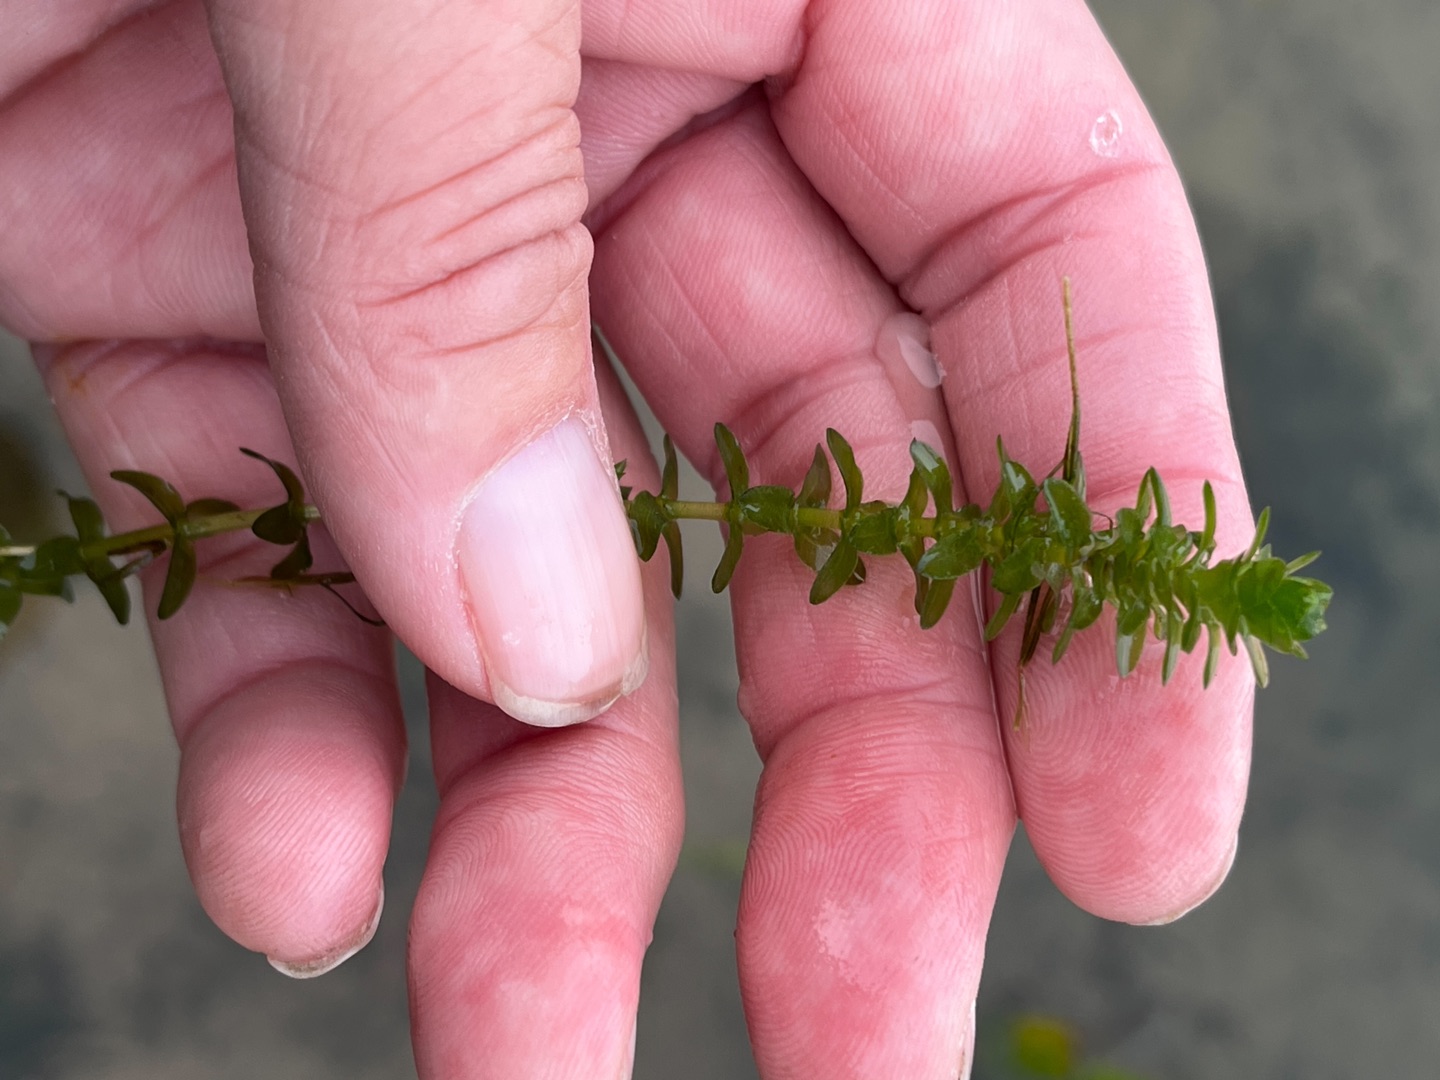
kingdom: Plantae
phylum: Tracheophyta
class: Liliopsida
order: Alismatales
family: Hydrocharitaceae
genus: Elodea
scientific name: Elodea canadensis
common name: Vandpest
